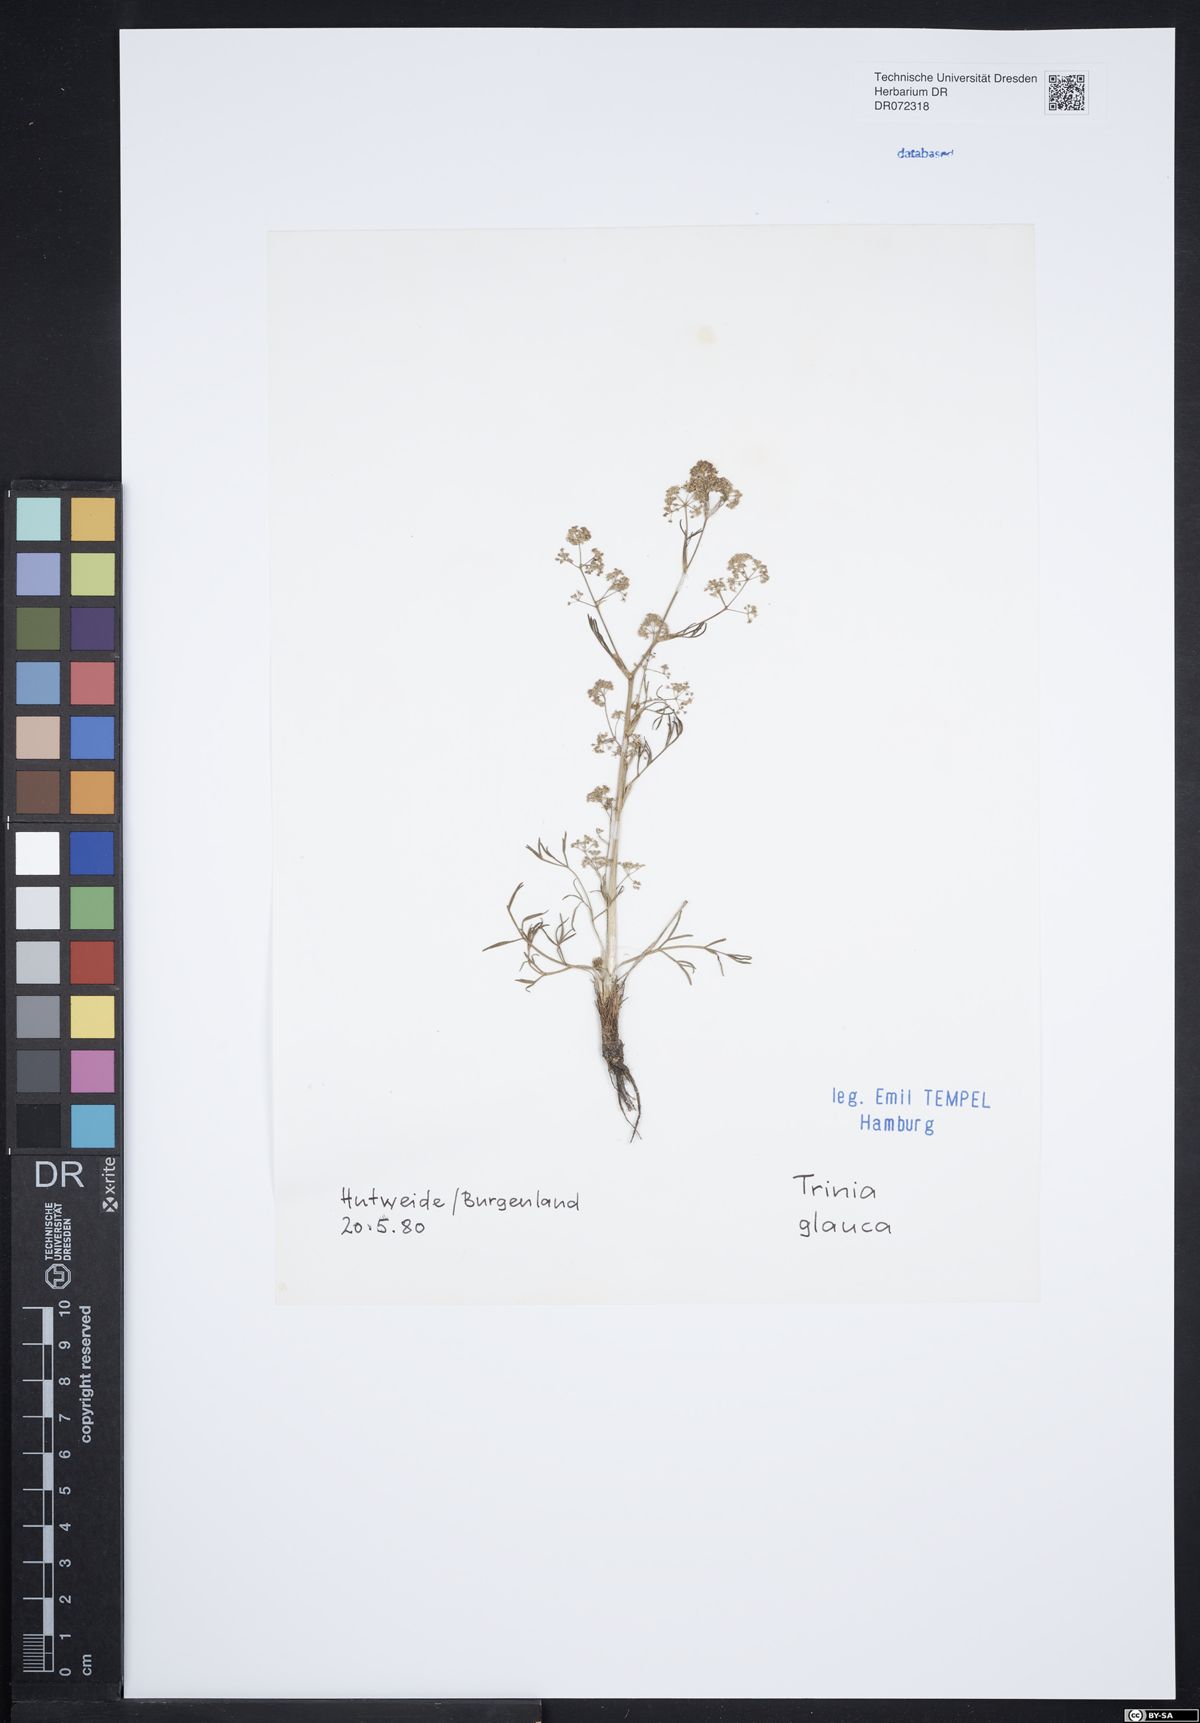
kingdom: Plantae
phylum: Tracheophyta
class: Magnoliopsida
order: Apiales
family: Apiaceae
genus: Trinia
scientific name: Trinia glauca
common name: Honewort
